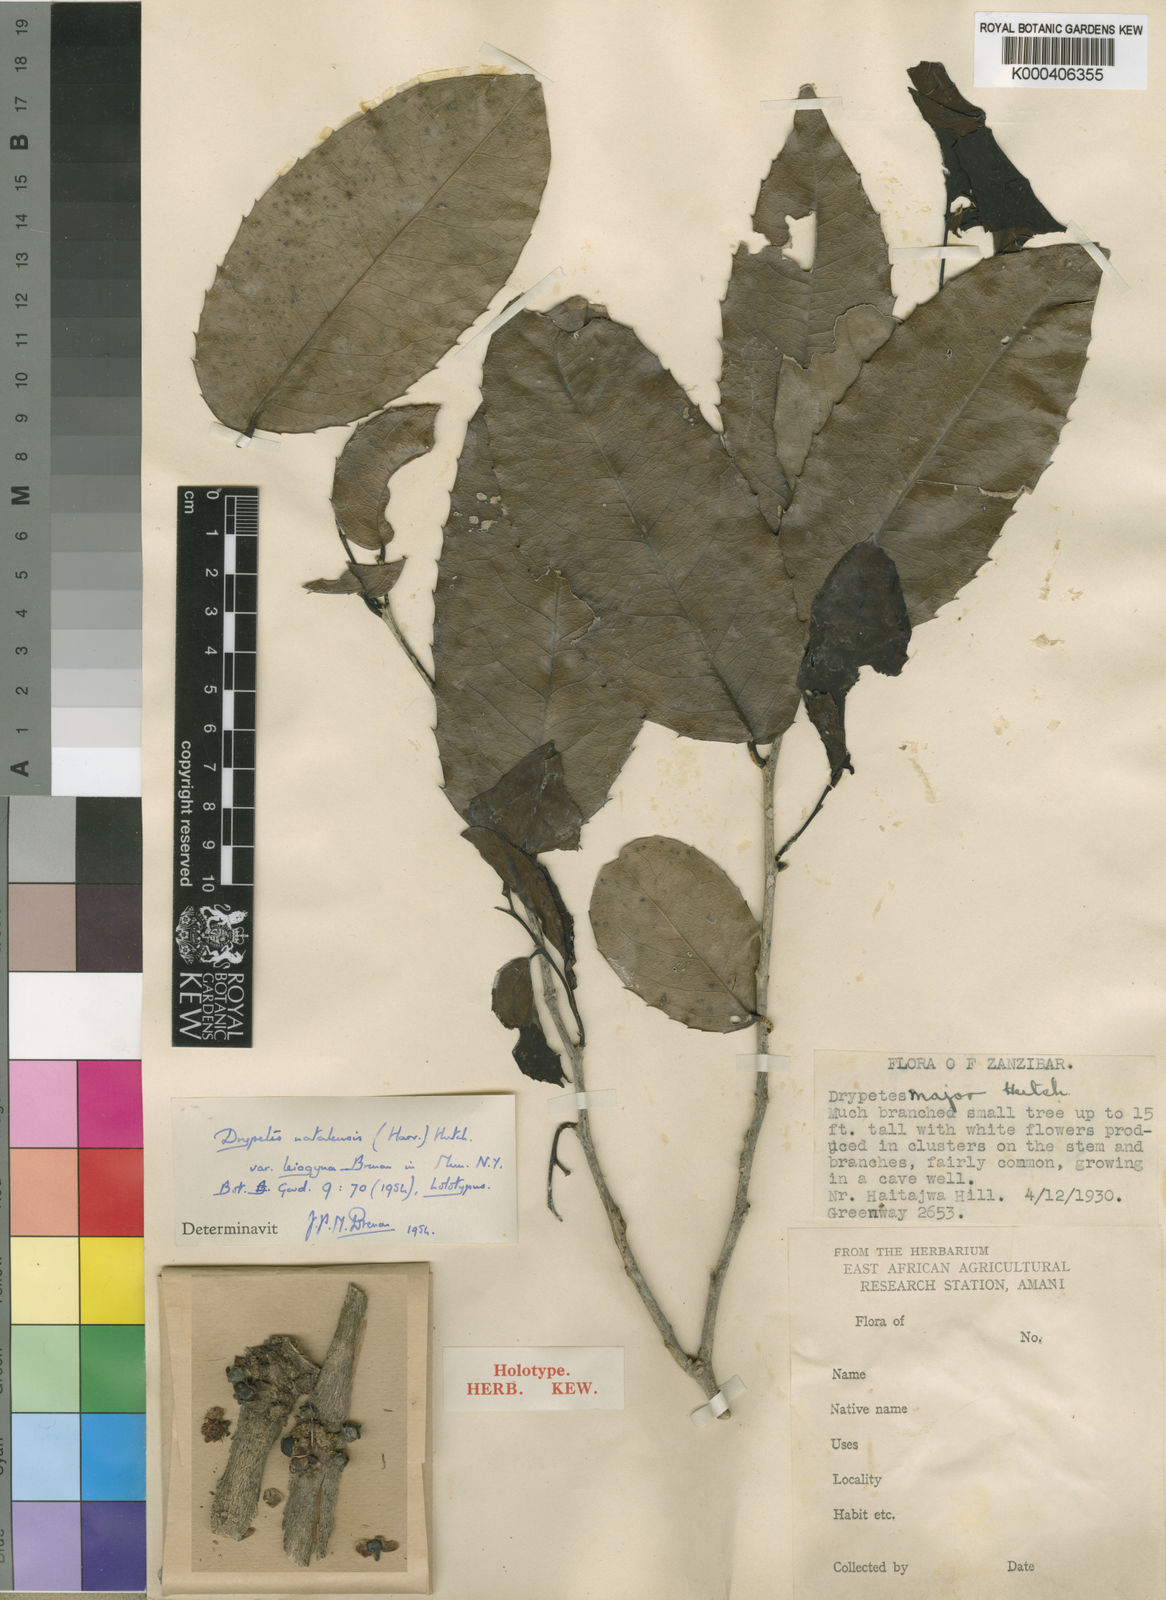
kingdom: Plantae
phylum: Tracheophyta
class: Magnoliopsida
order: Malpighiales
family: Putranjivaceae
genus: Drypetes
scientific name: Drypetes natalensis
